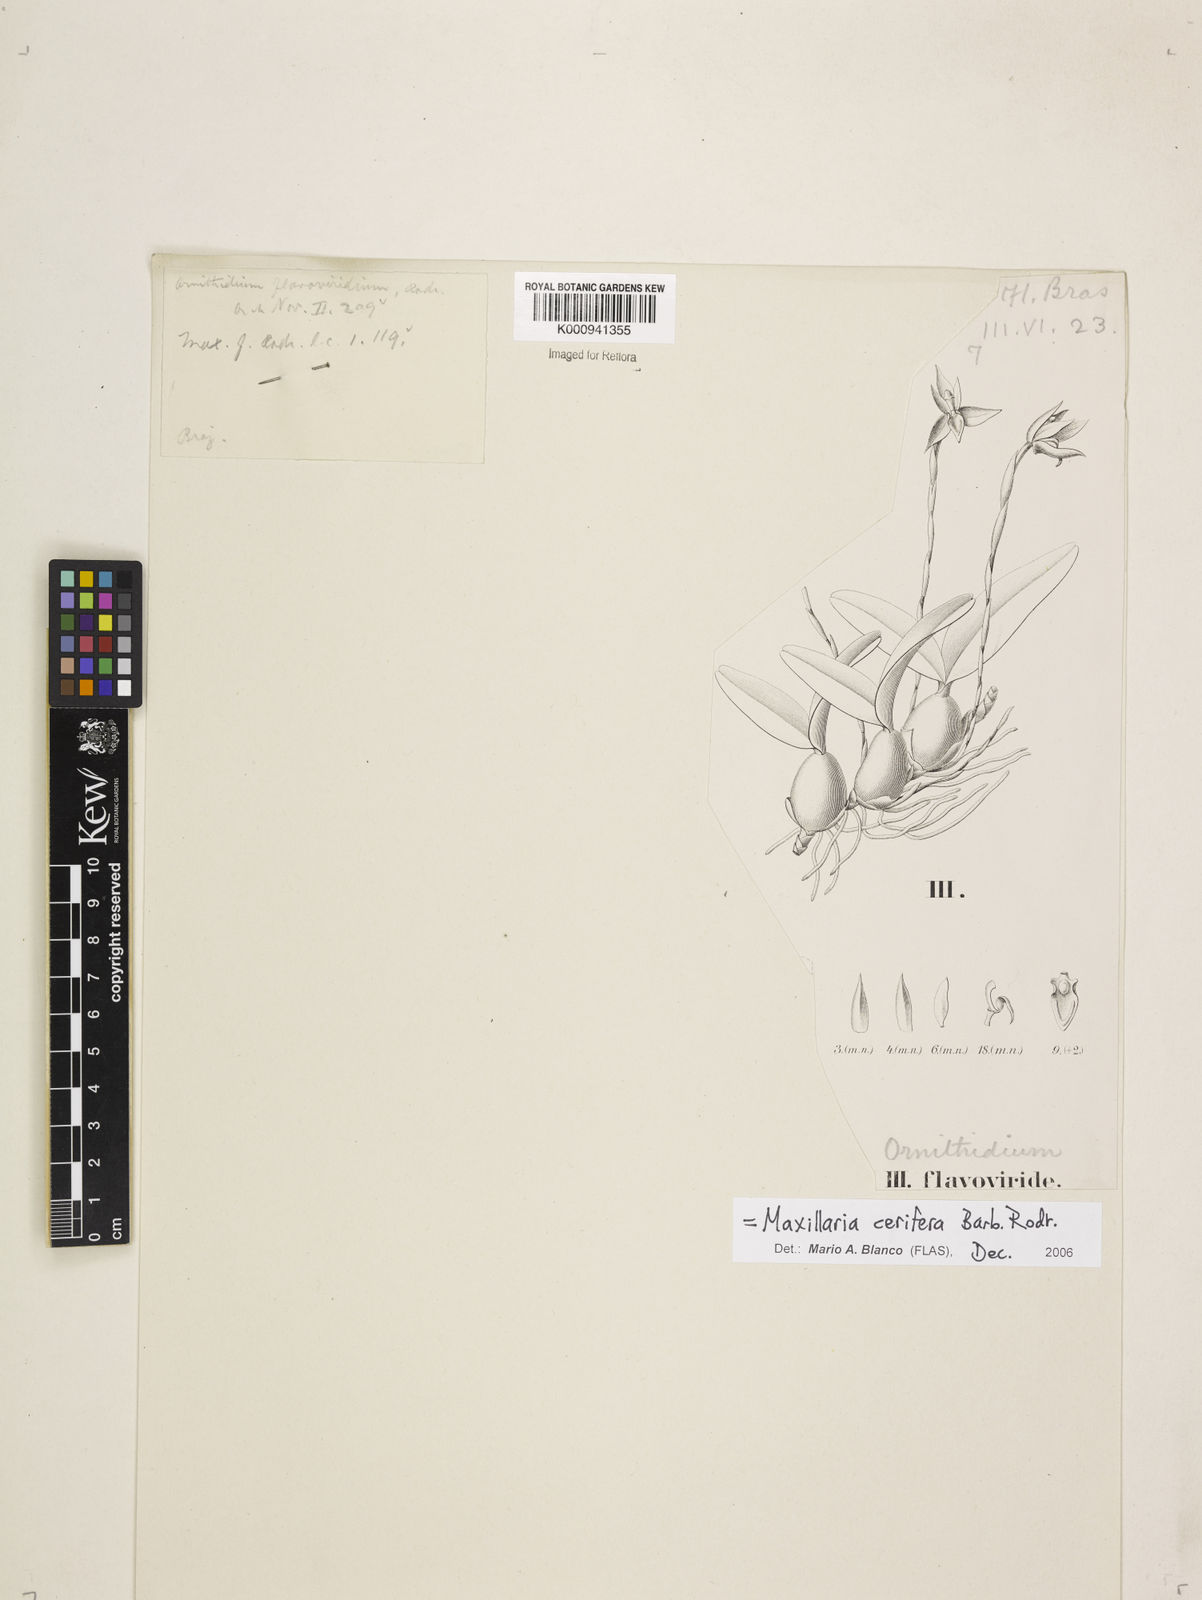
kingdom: Plantae
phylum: Tracheophyta
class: Liliopsida
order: Asparagales
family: Orchidaceae
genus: Maxillaria
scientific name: Maxillaria notylioglossa
